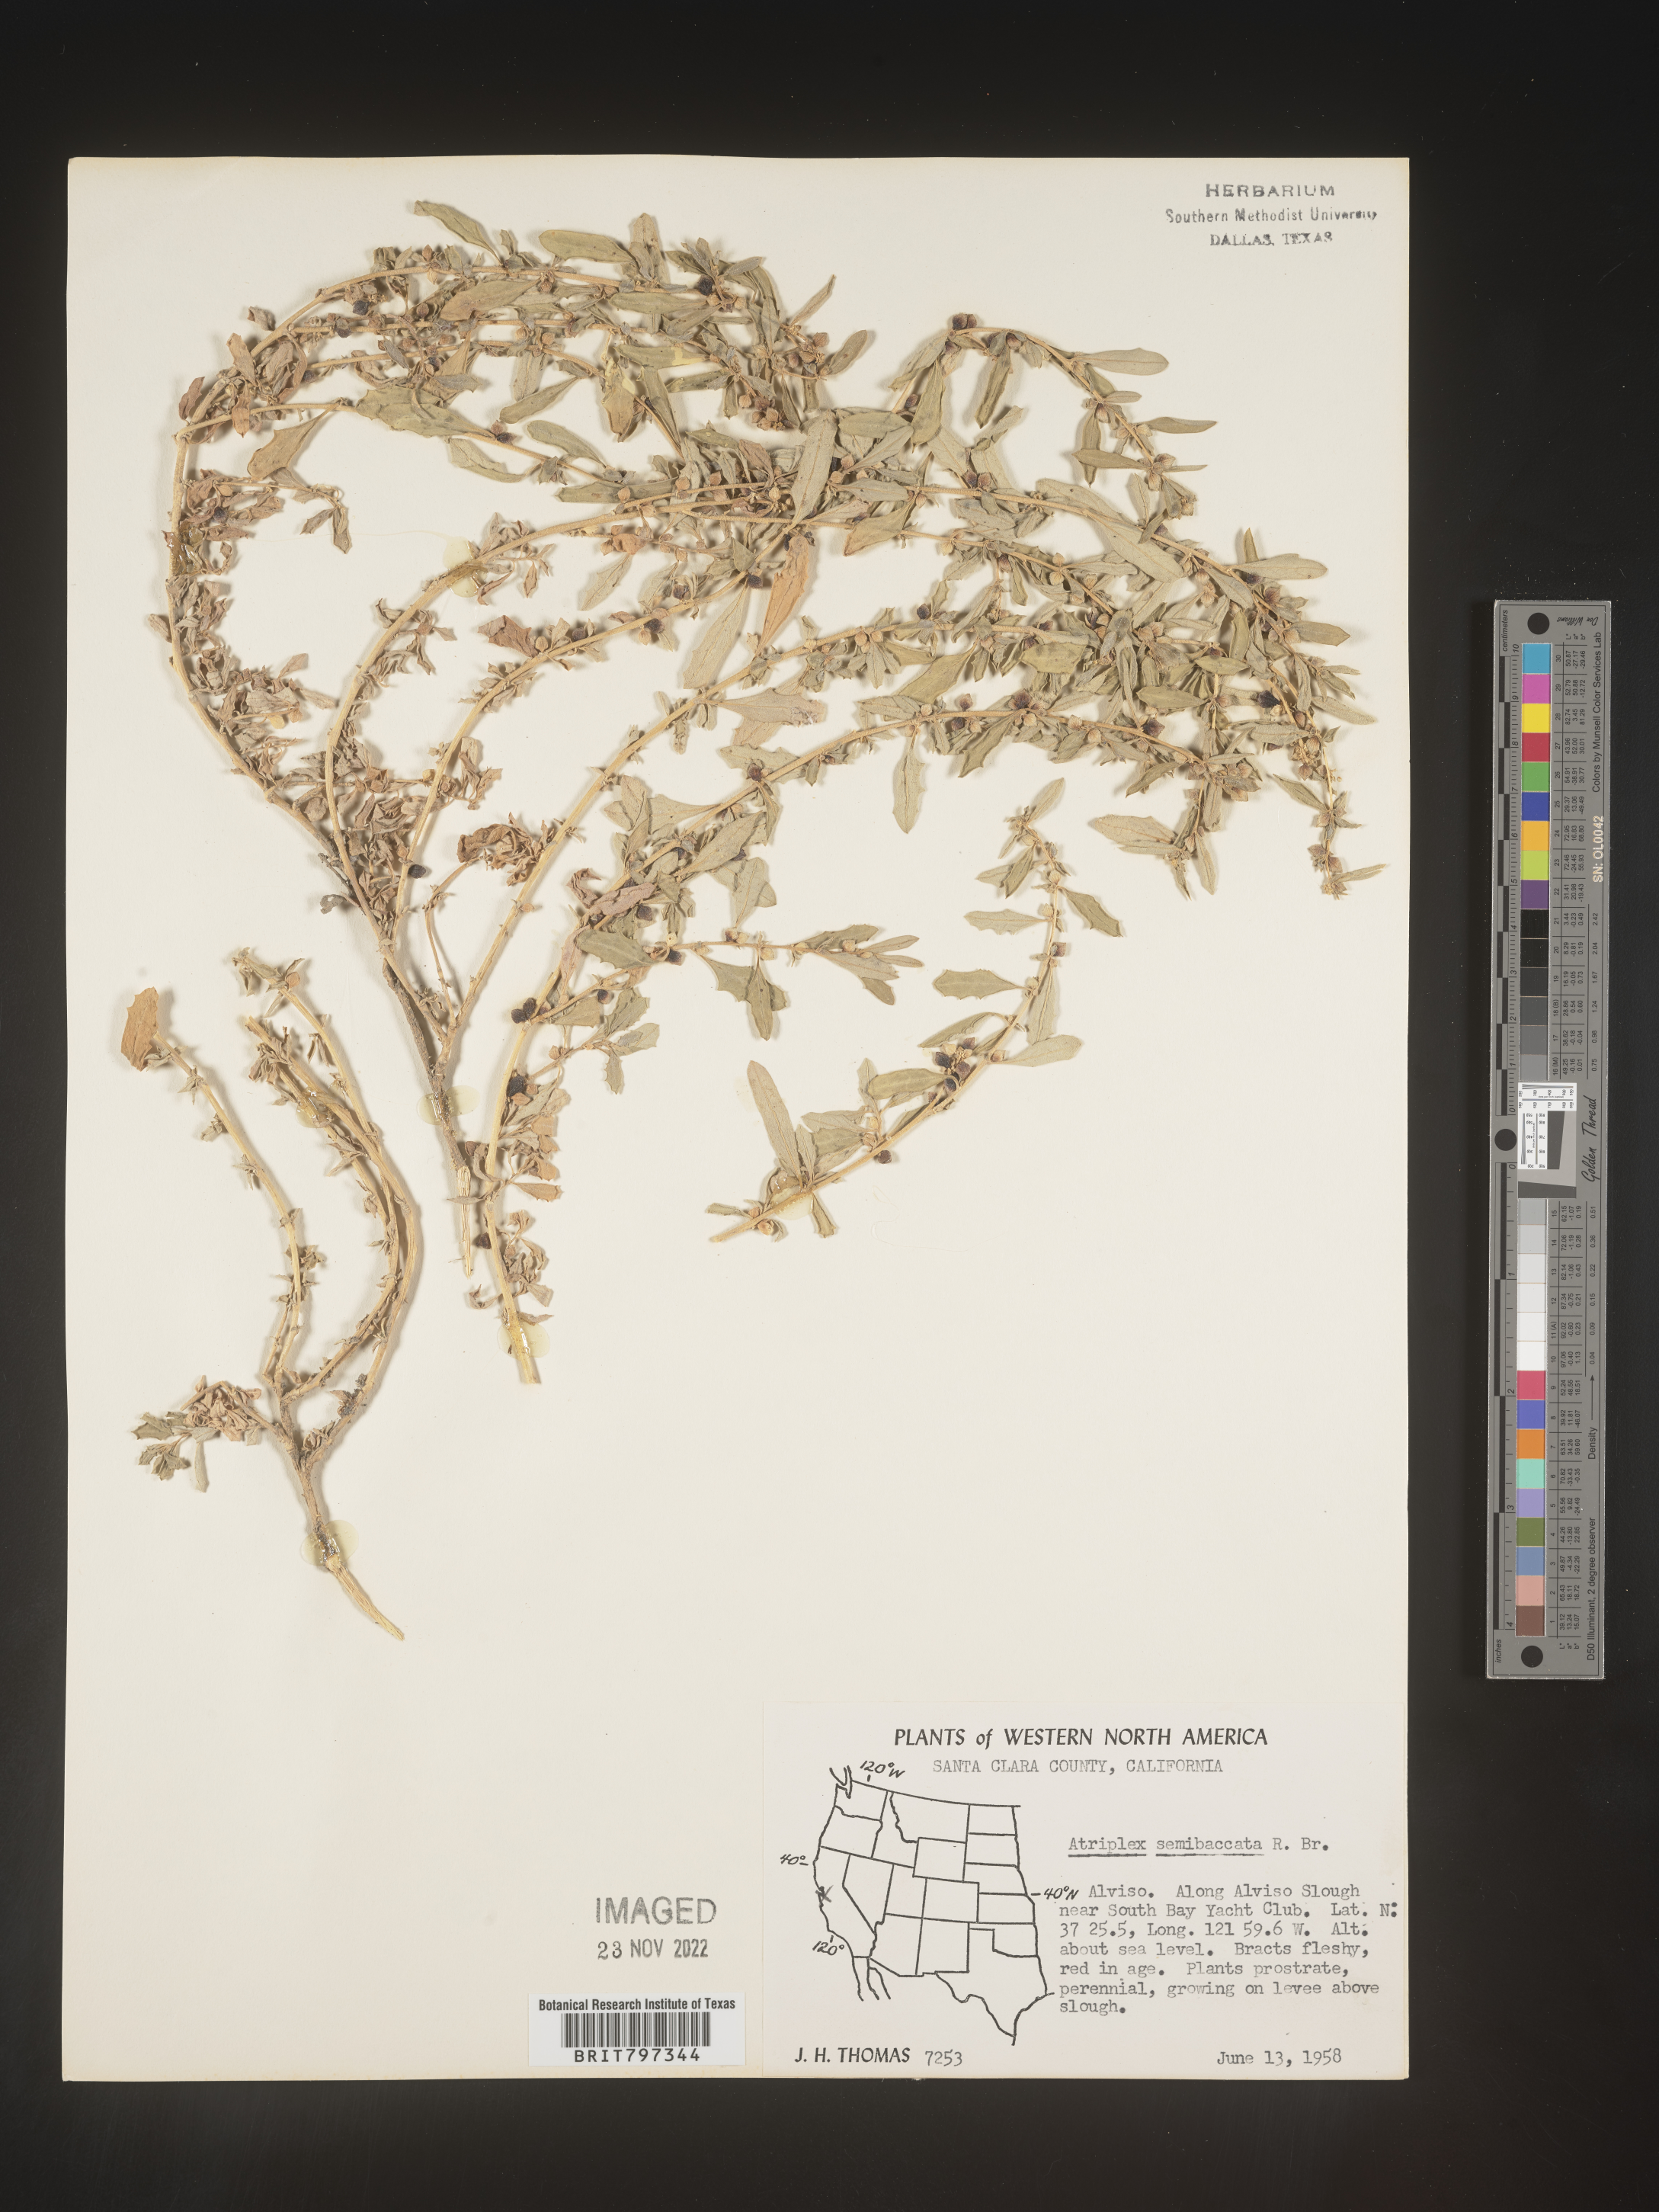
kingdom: Plantae
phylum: Tracheophyta
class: Magnoliopsida
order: Caryophyllales
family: Amaranthaceae
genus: Atriplex
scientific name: Atriplex
